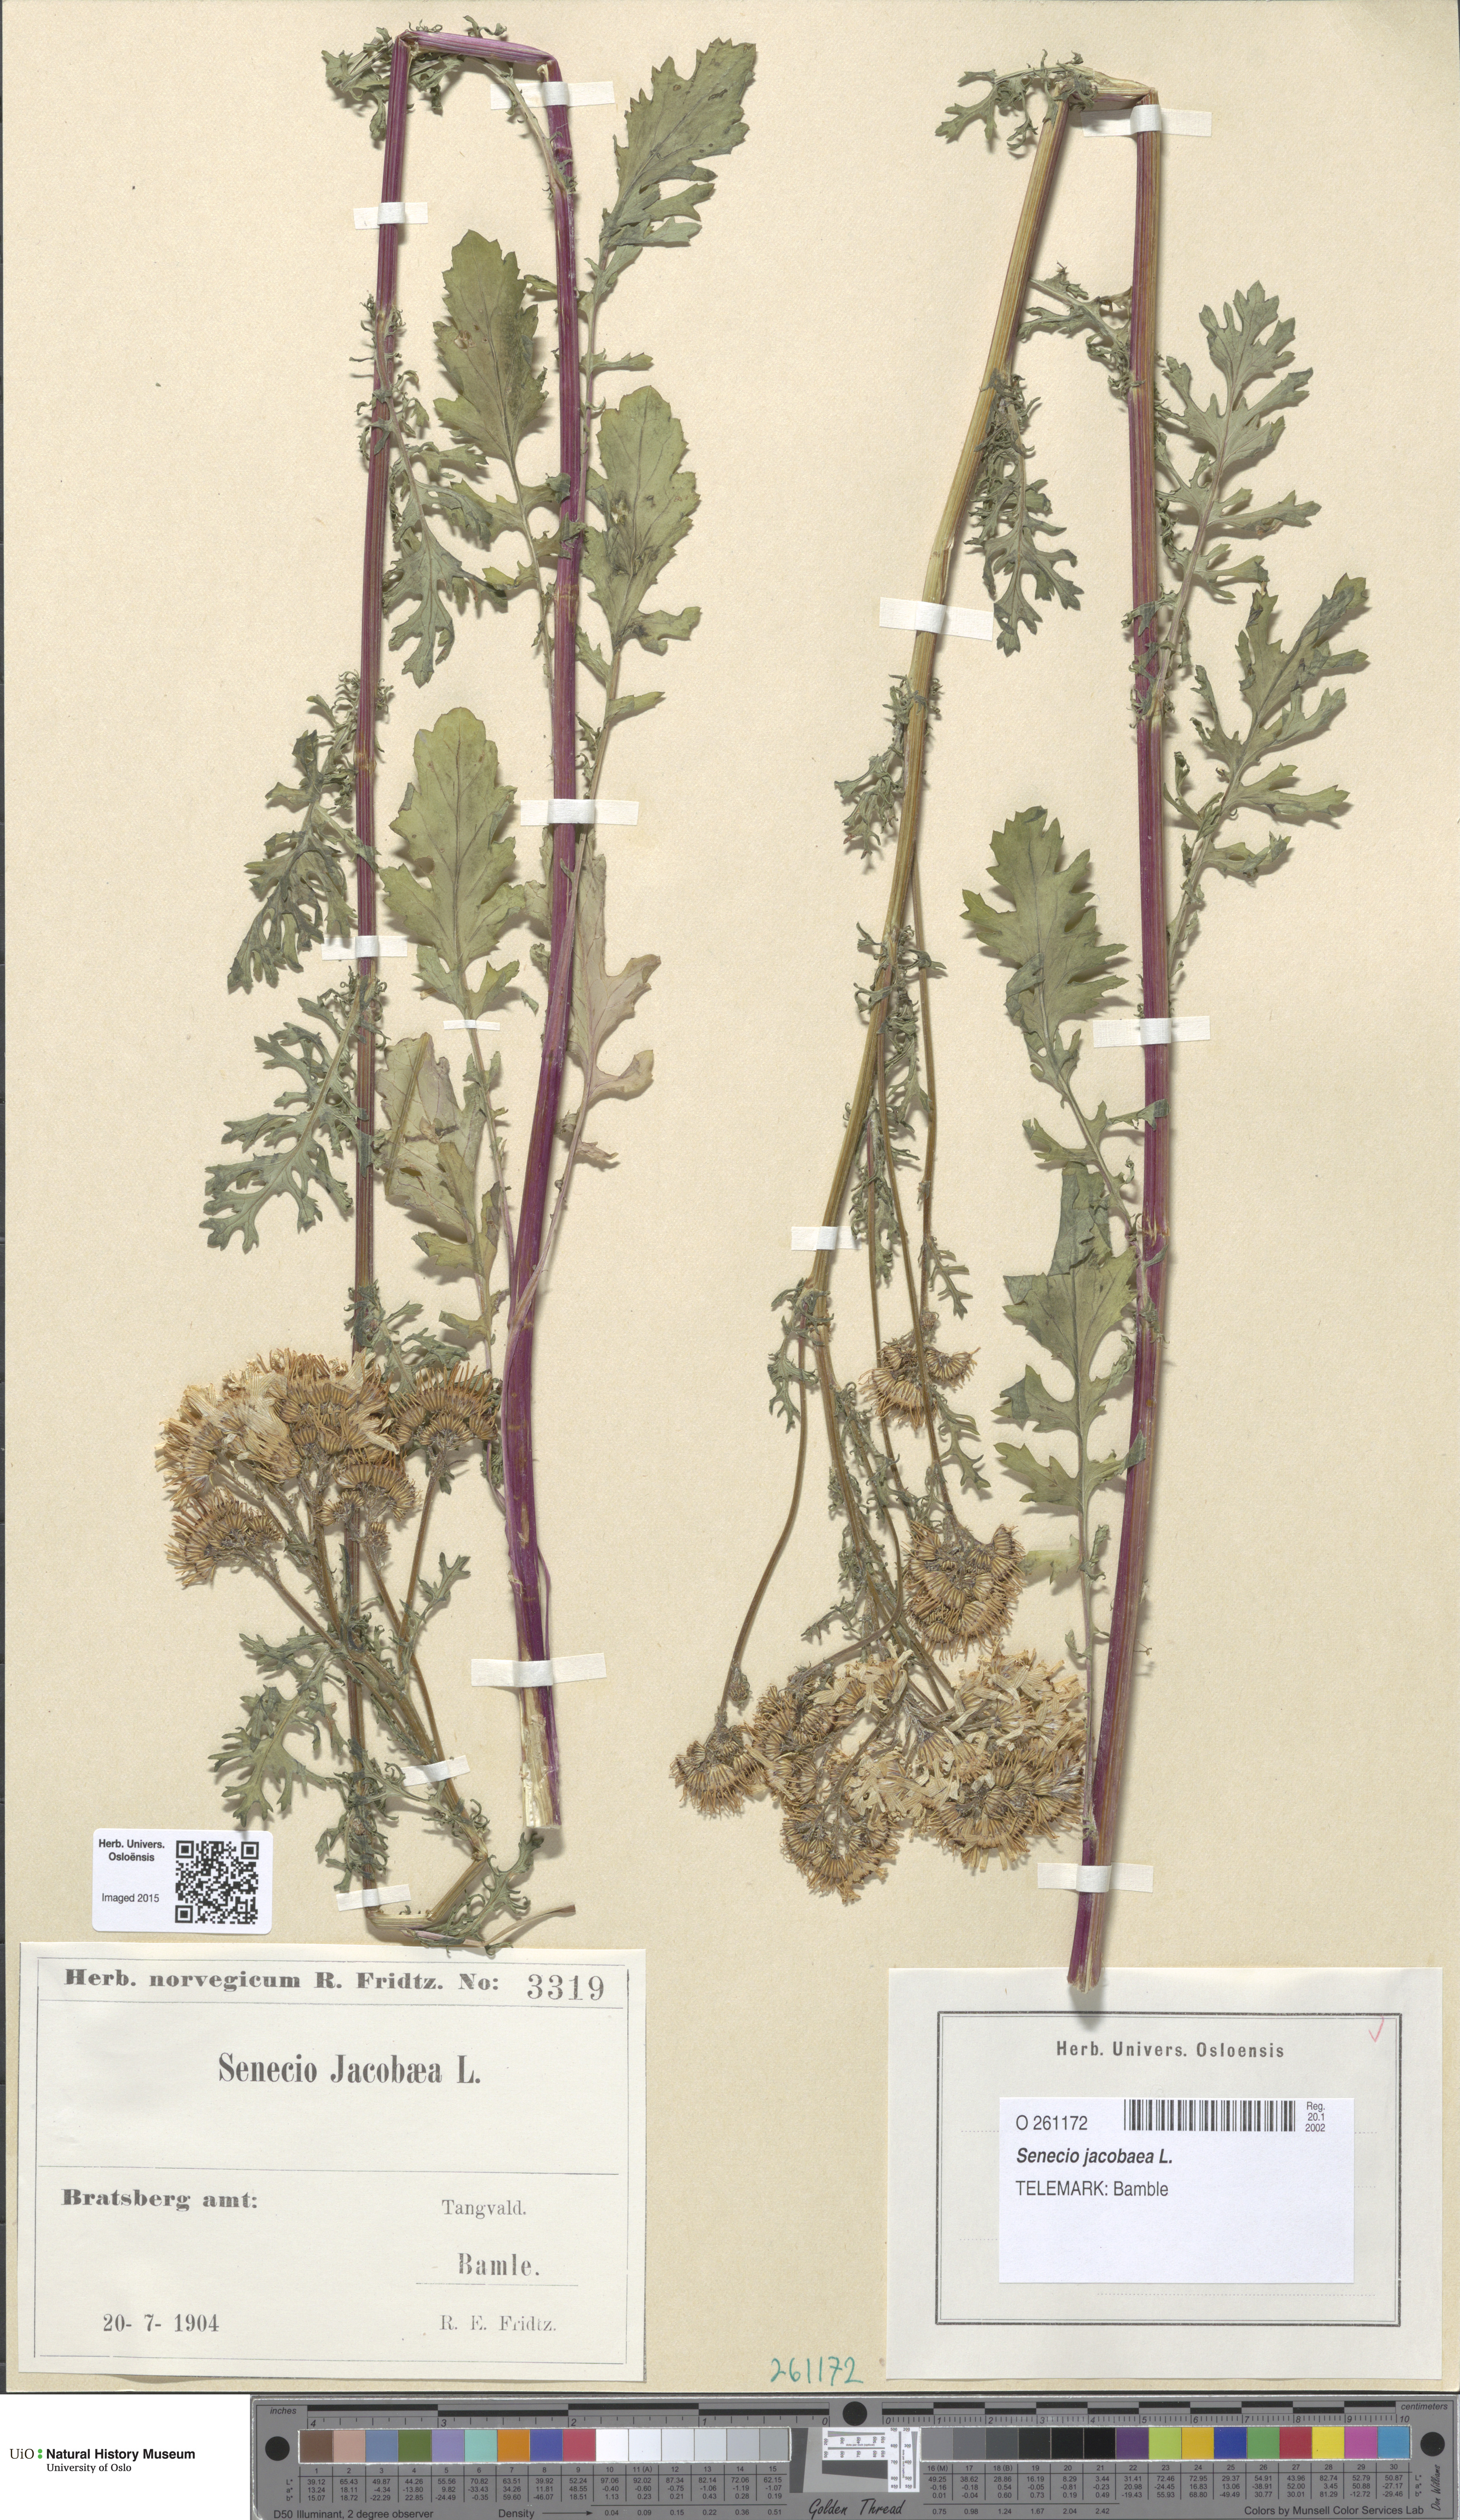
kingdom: Plantae
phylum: Tracheophyta
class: Magnoliopsida
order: Asterales
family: Asteraceae
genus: Jacobaea
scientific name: Jacobaea vulgaris
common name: Stinking willie
